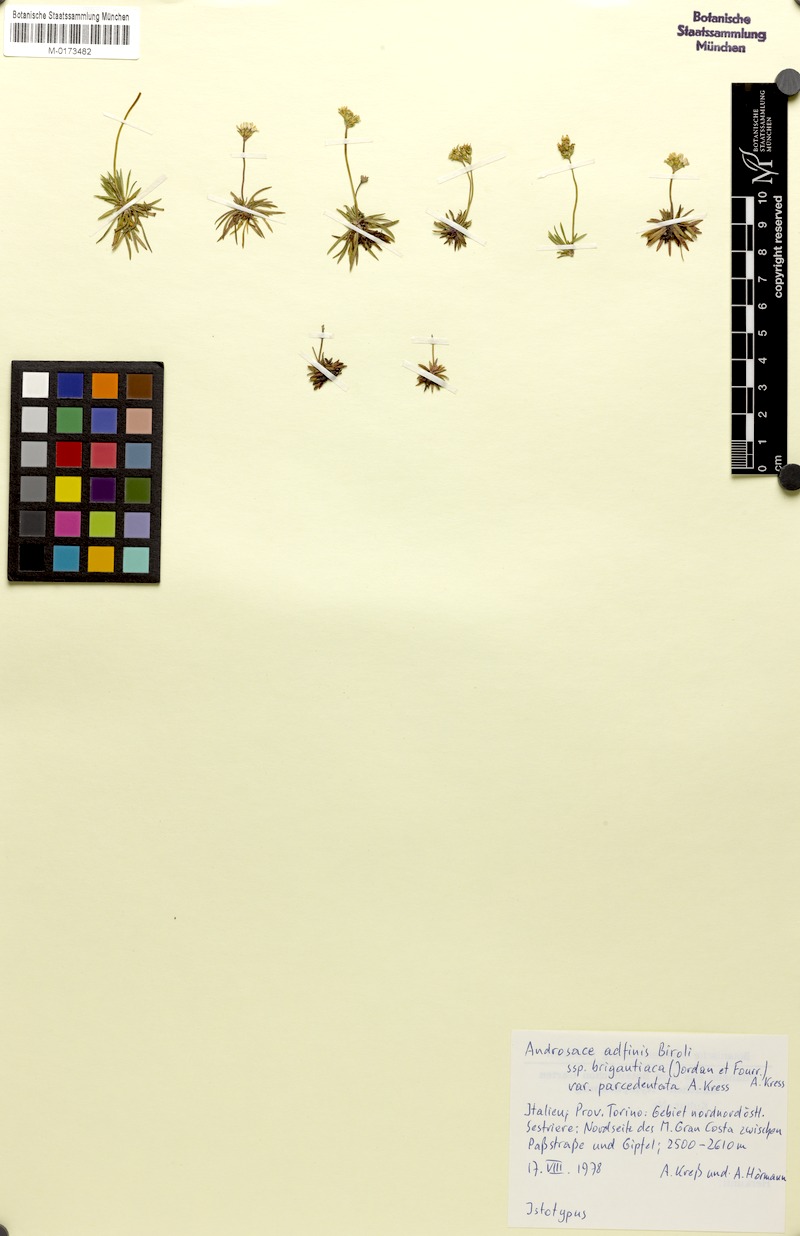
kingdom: Plantae
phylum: Tracheophyta
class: Magnoliopsida
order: Ericales
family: Primulaceae
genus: Androsace
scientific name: Androsace adfinis
